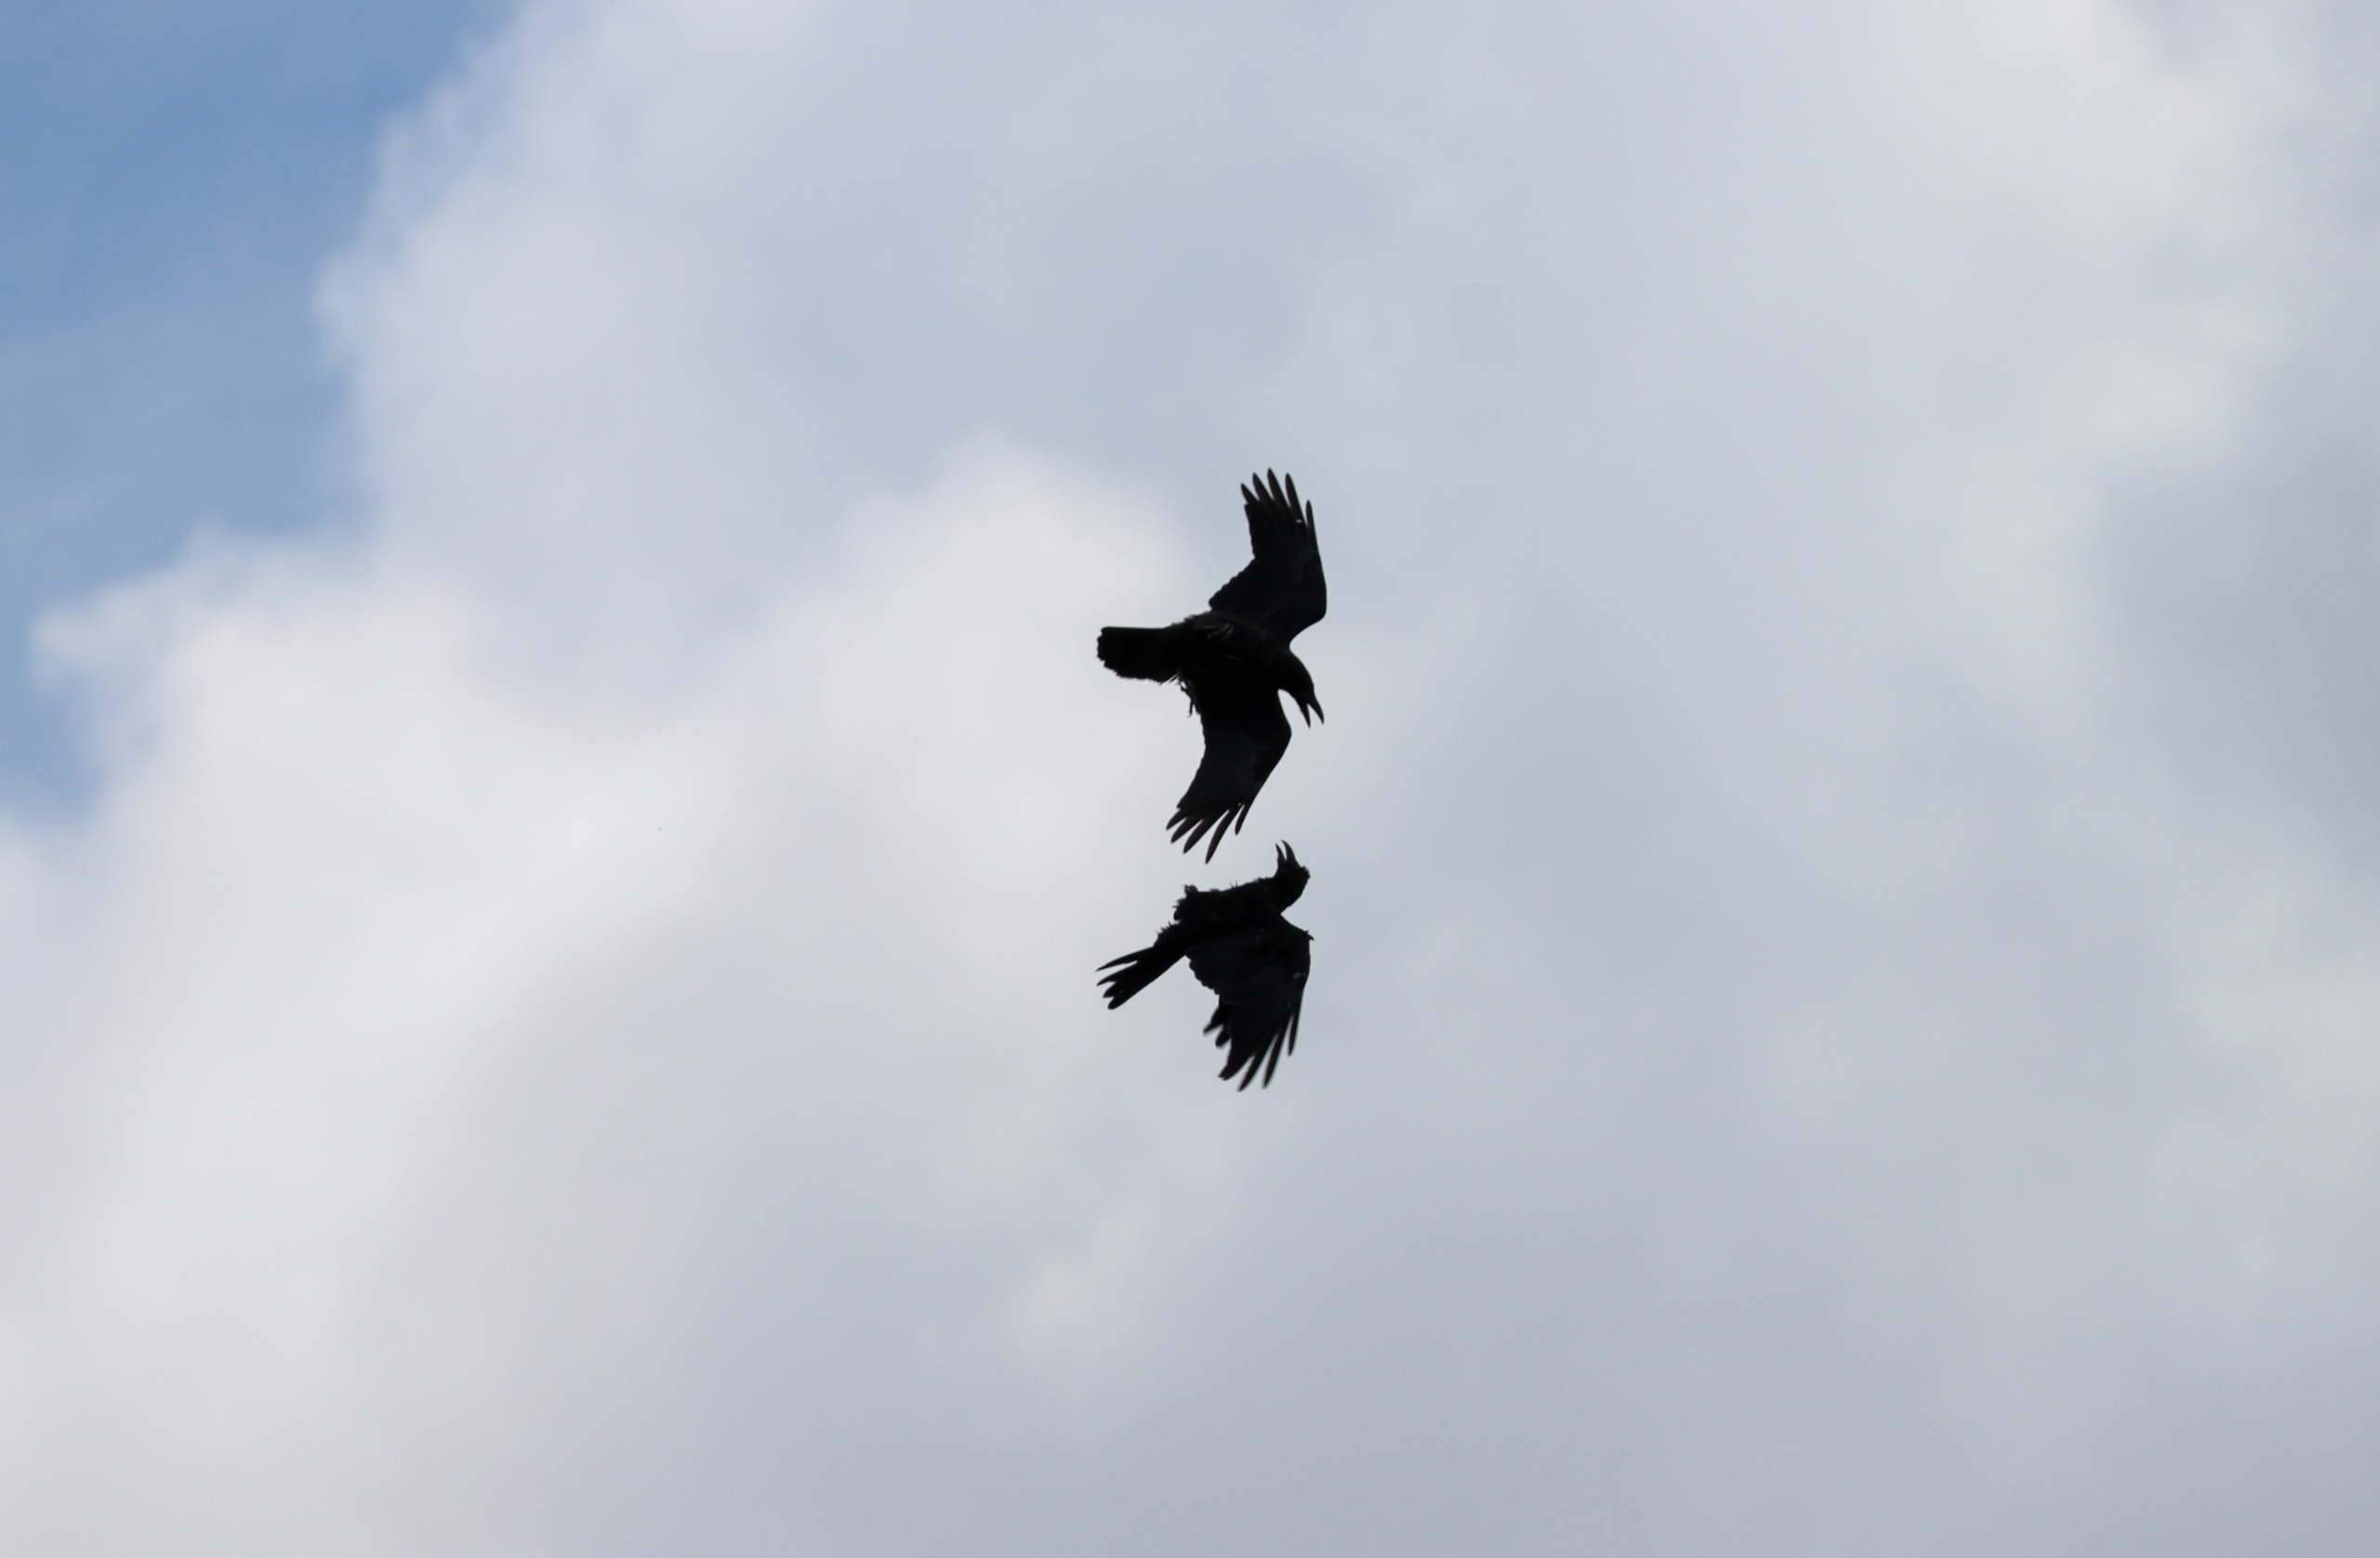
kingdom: Animalia
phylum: Chordata
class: Aves
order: Passeriformes
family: Corvidae
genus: Corvus
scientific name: Corvus corax
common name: Ravn
